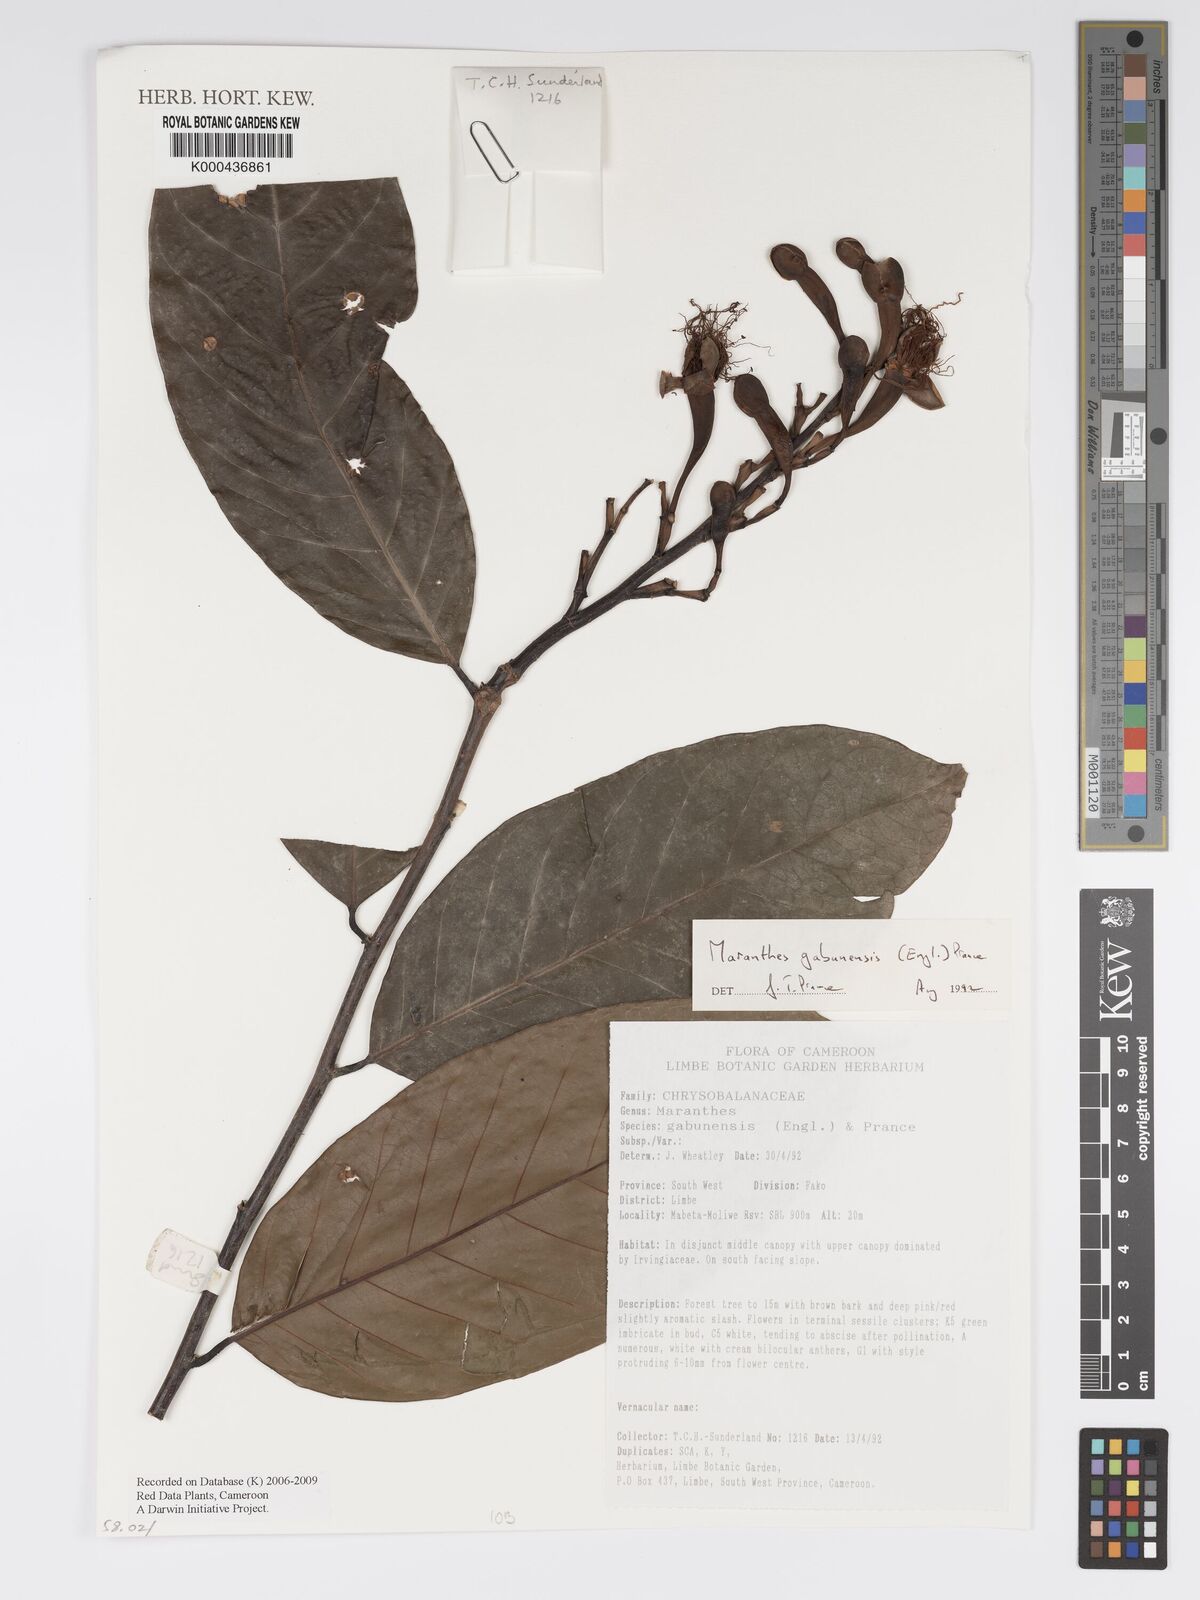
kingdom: Plantae
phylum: Tracheophyta
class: Magnoliopsida
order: Malpighiales
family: Chrysobalanaceae
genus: Maranthes
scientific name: Maranthes gabunensis
